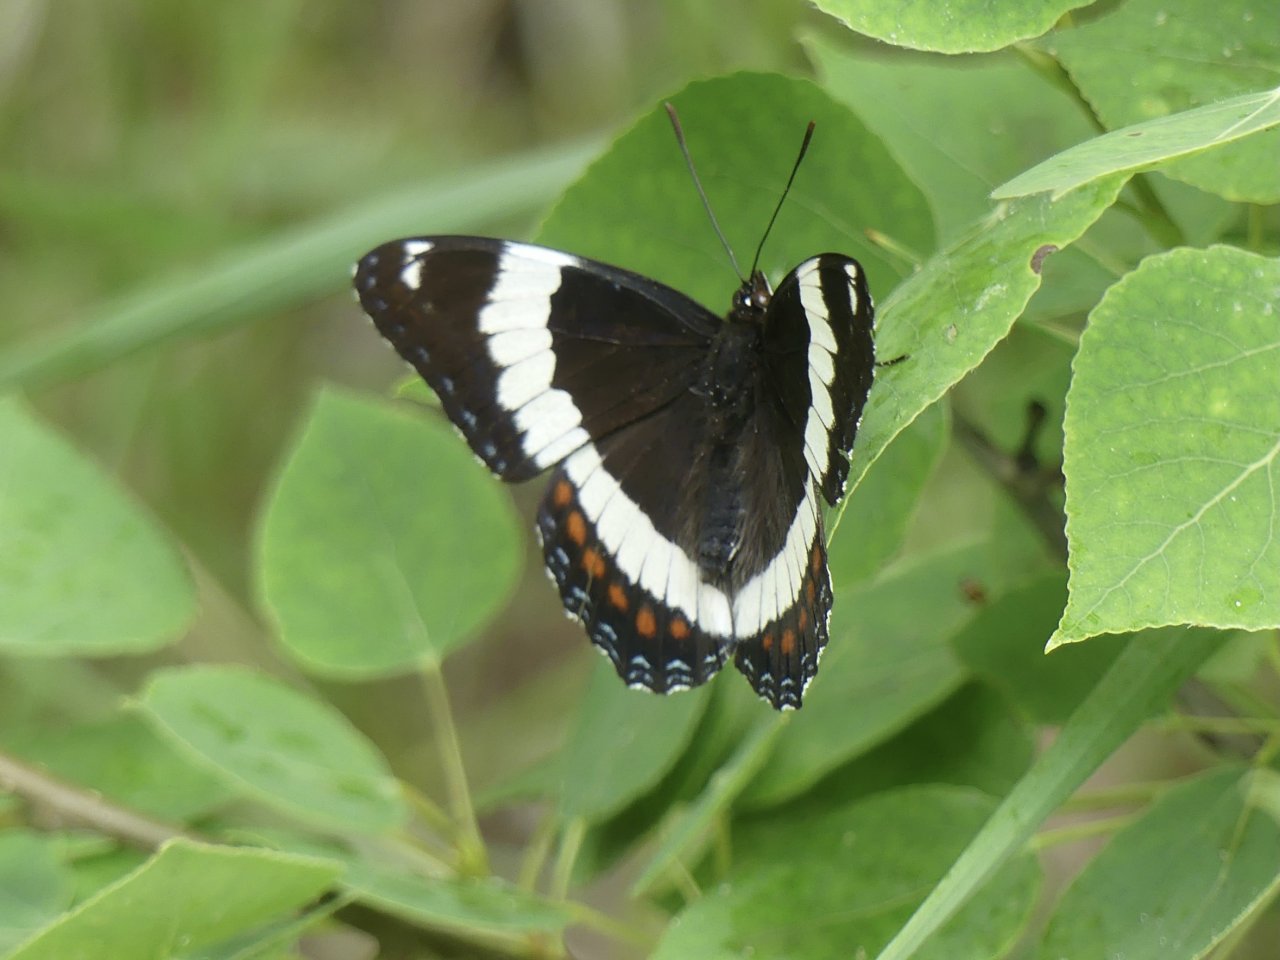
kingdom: Animalia
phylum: Arthropoda
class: Insecta
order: Lepidoptera
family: Nymphalidae
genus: Limenitis
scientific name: Limenitis arthemis
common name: Red-spotted Admiral
